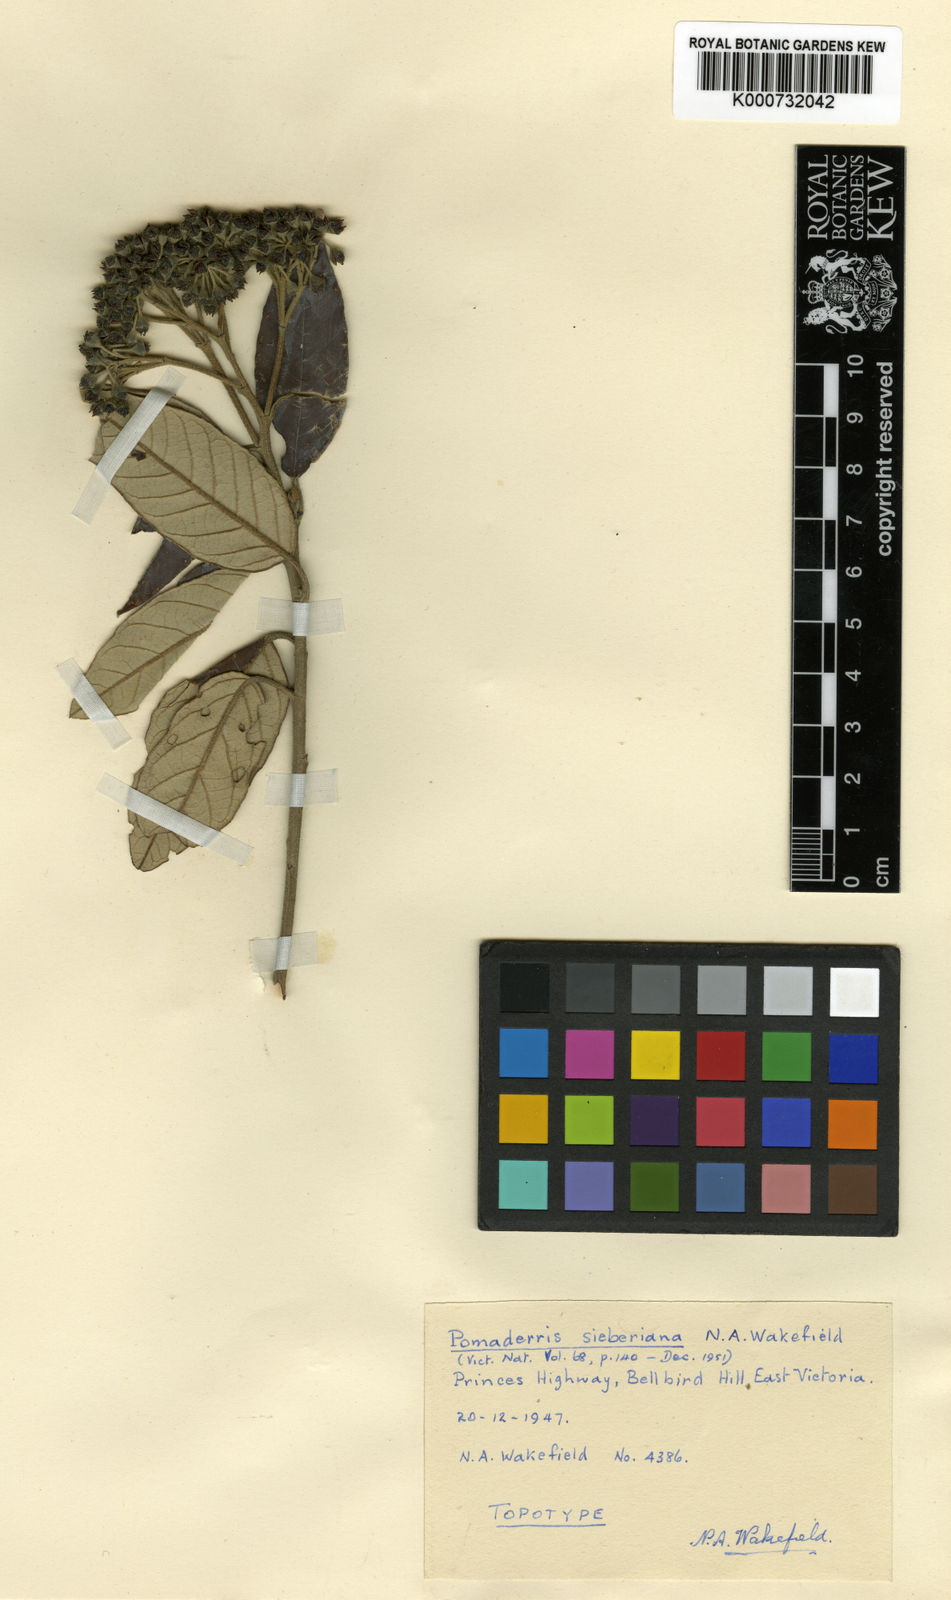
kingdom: Plantae
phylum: Tracheophyta
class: Magnoliopsida
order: Rosales
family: Rhamnaceae
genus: Pomaderris
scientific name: Pomaderris
